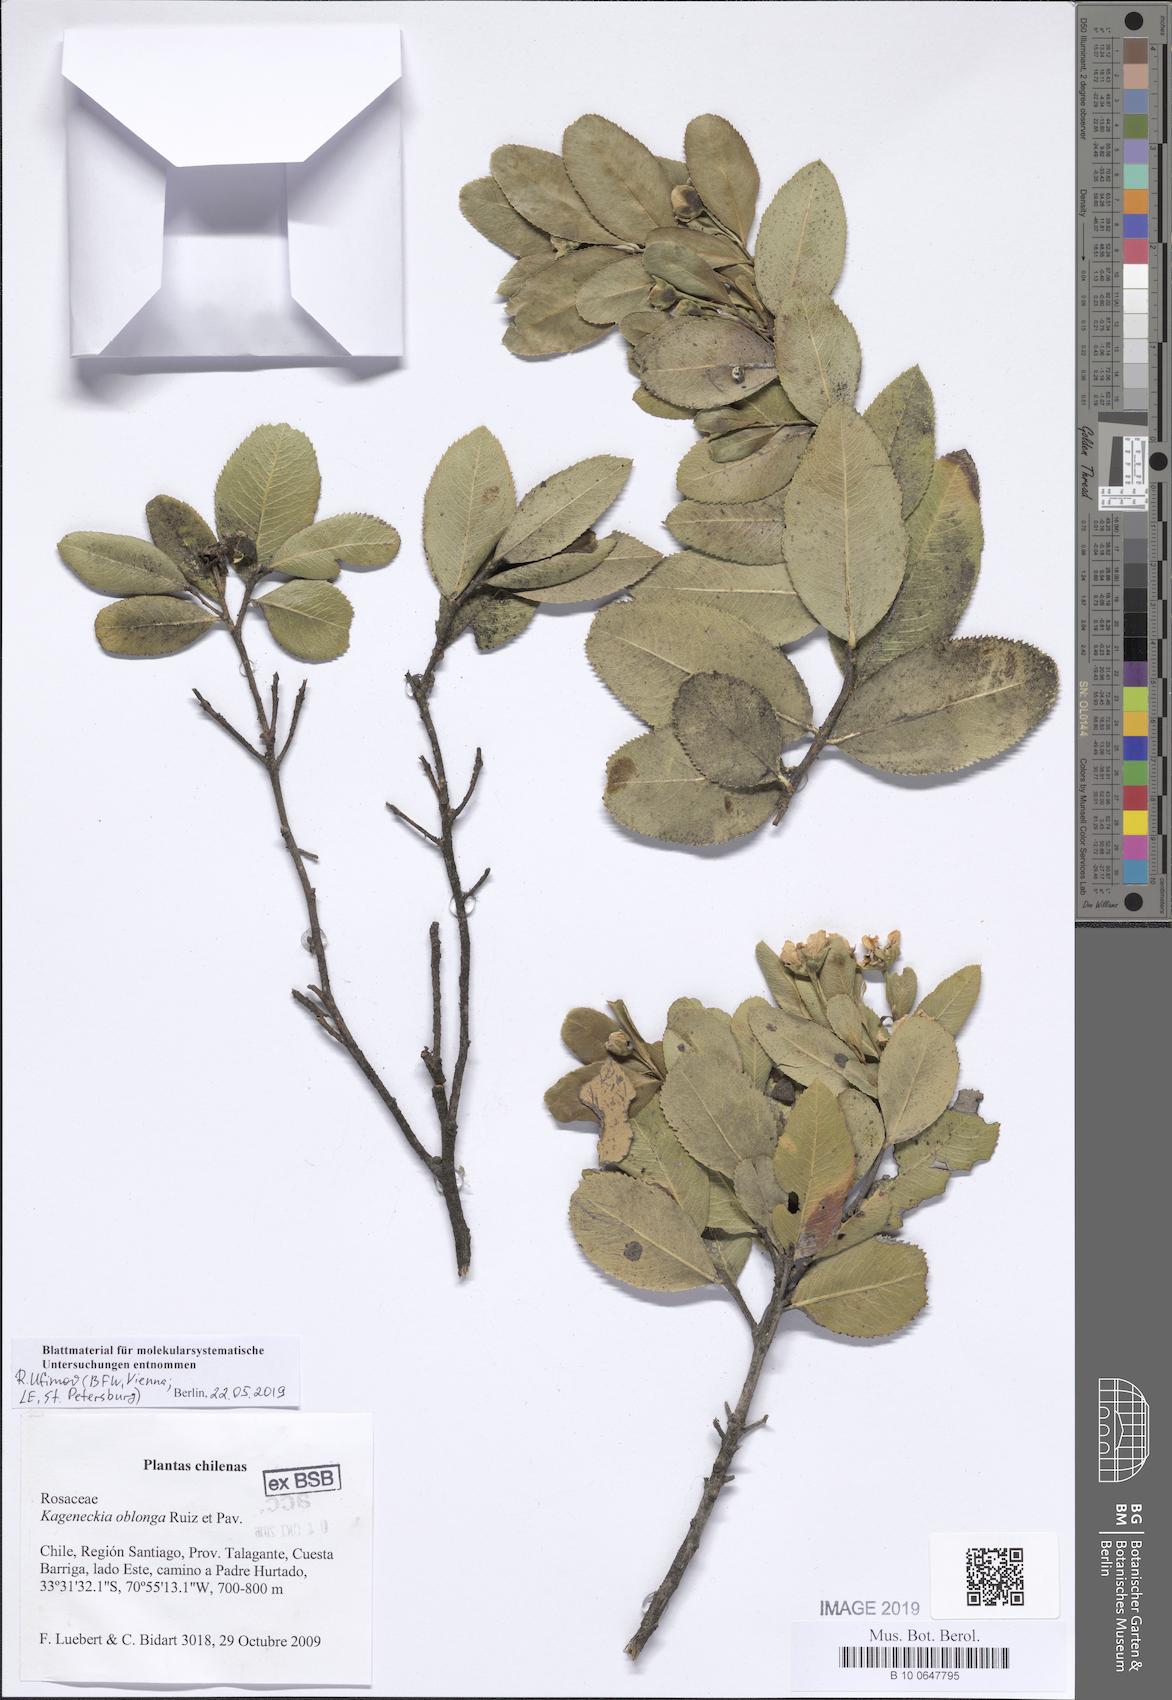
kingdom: Plantae
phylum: Tracheophyta
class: Magnoliopsida
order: Rosales
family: Rosaceae
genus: Kageneckia
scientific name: Kageneckia oblonga
